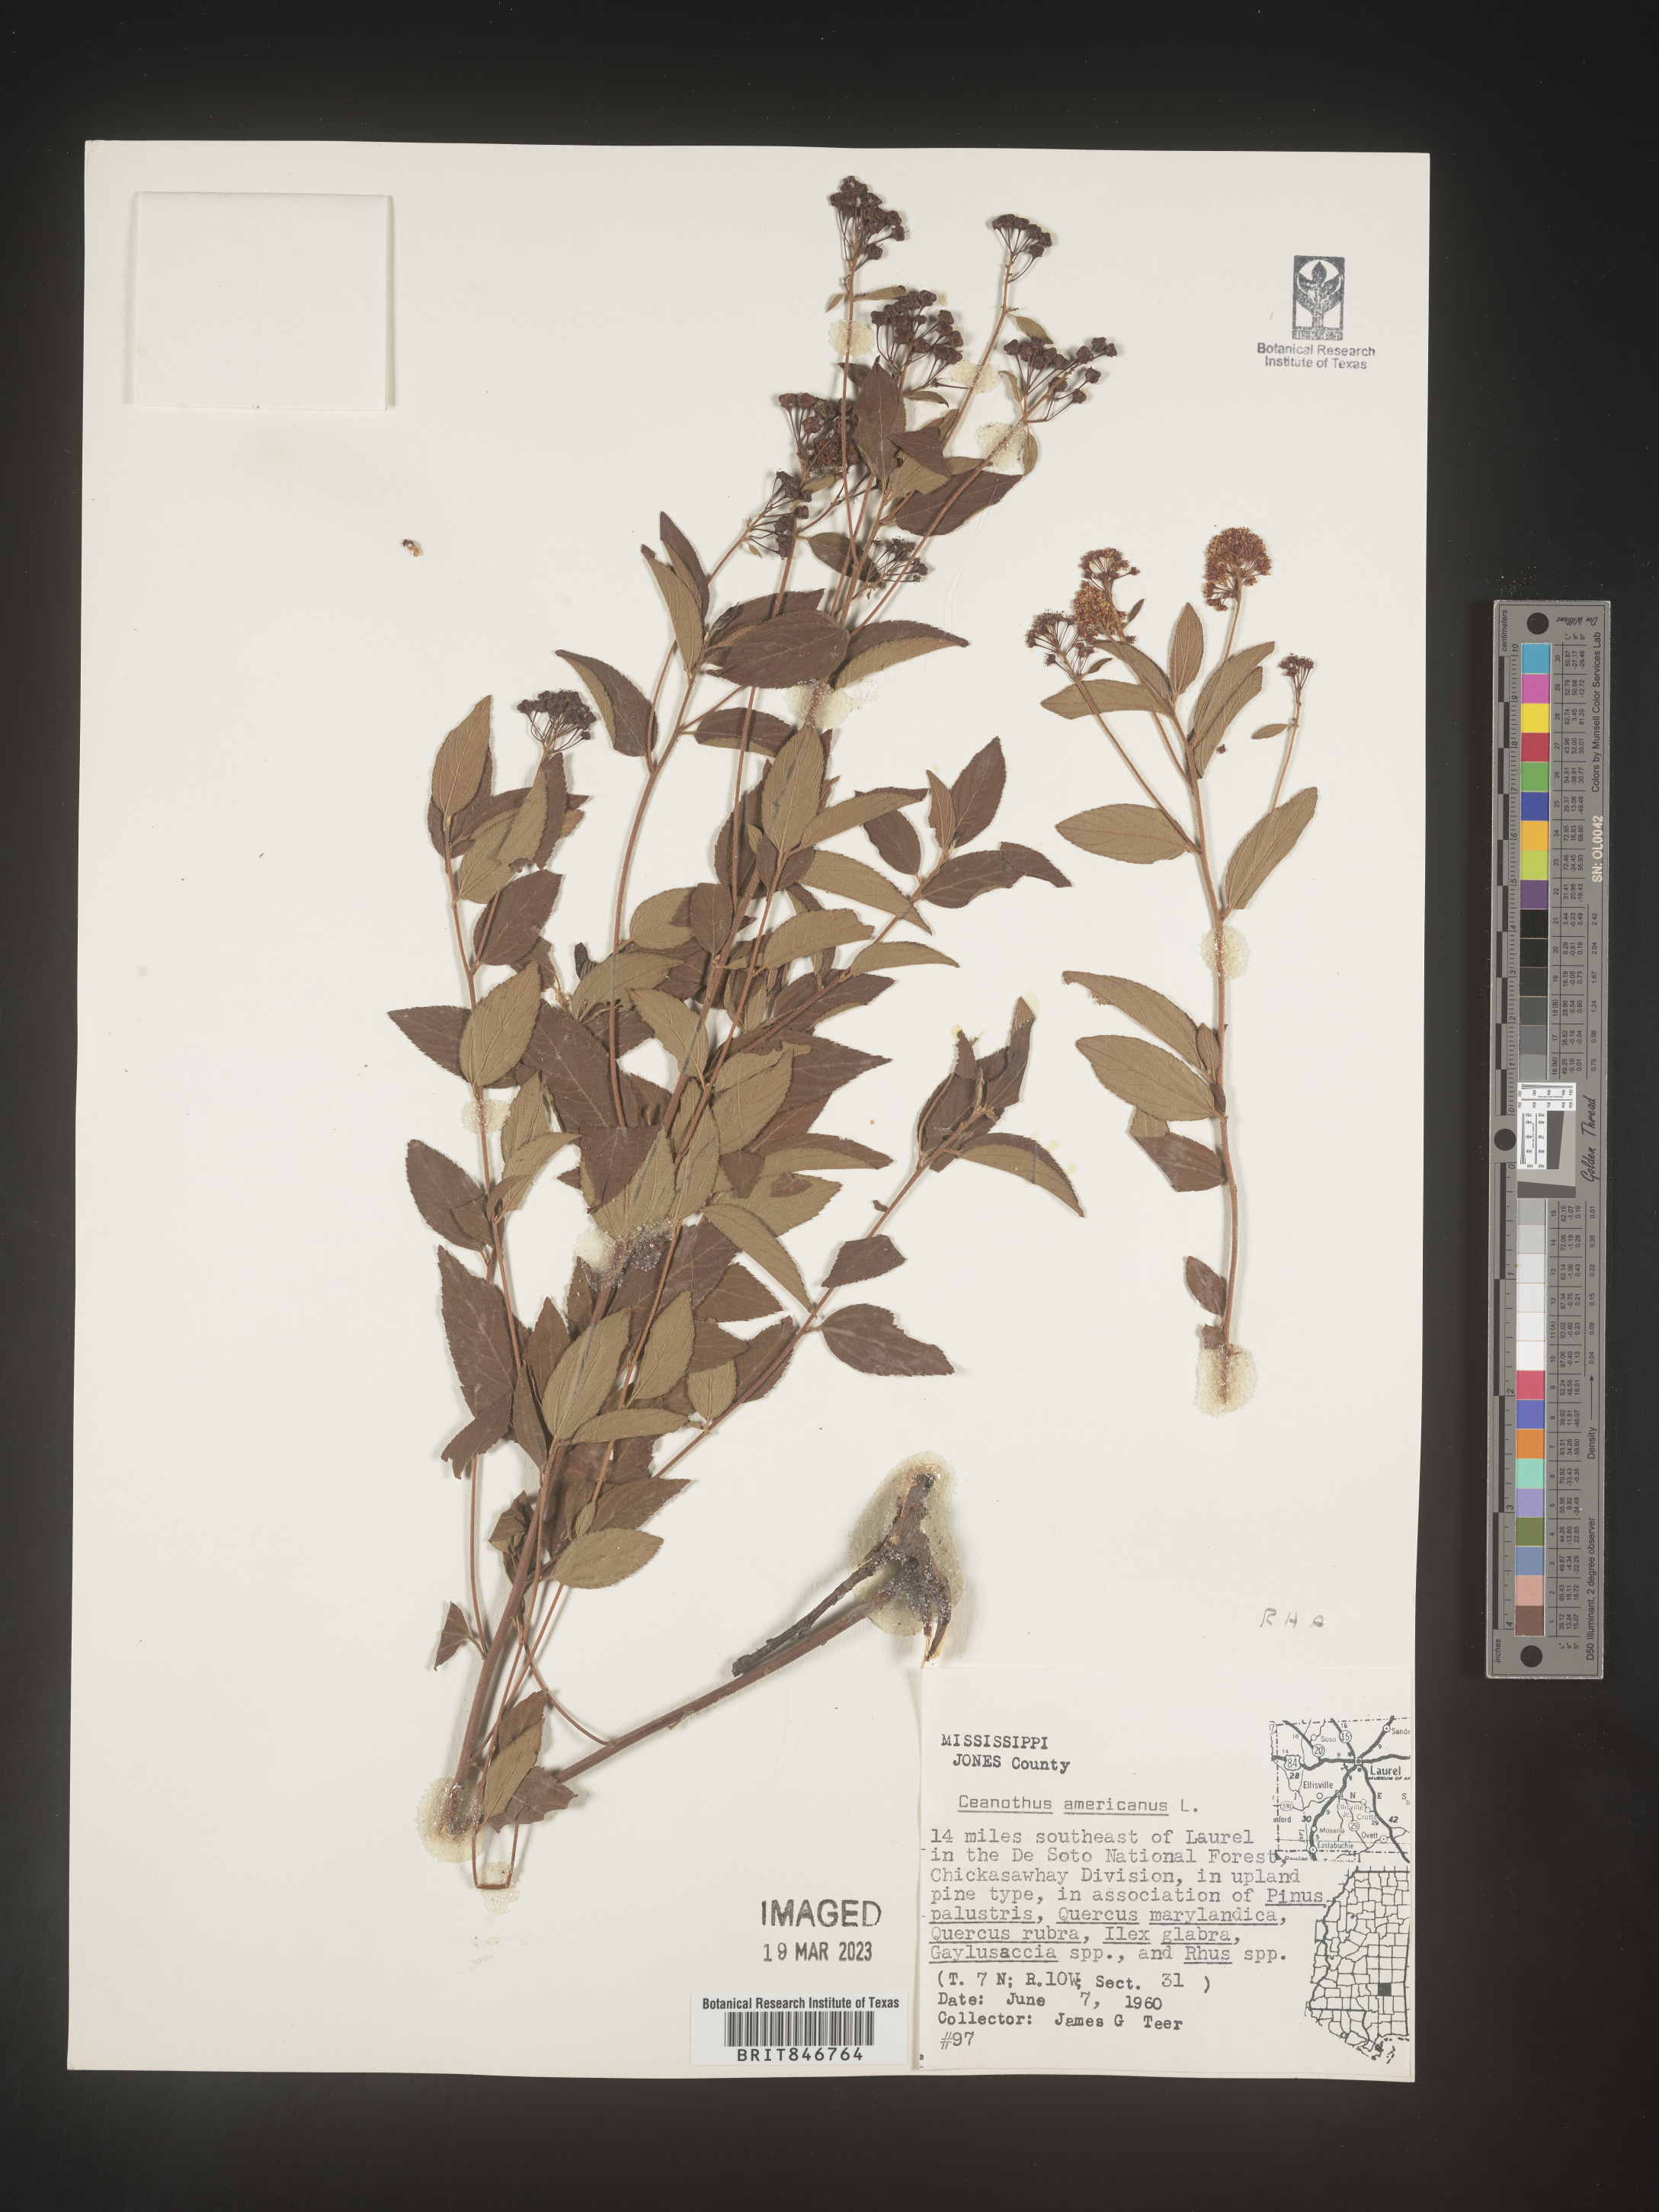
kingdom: Plantae
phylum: Tracheophyta
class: Magnoliopsida
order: Rosales
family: Rhamnaceae
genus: Ceanothus
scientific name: Ceanothus americanus
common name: Redroot
